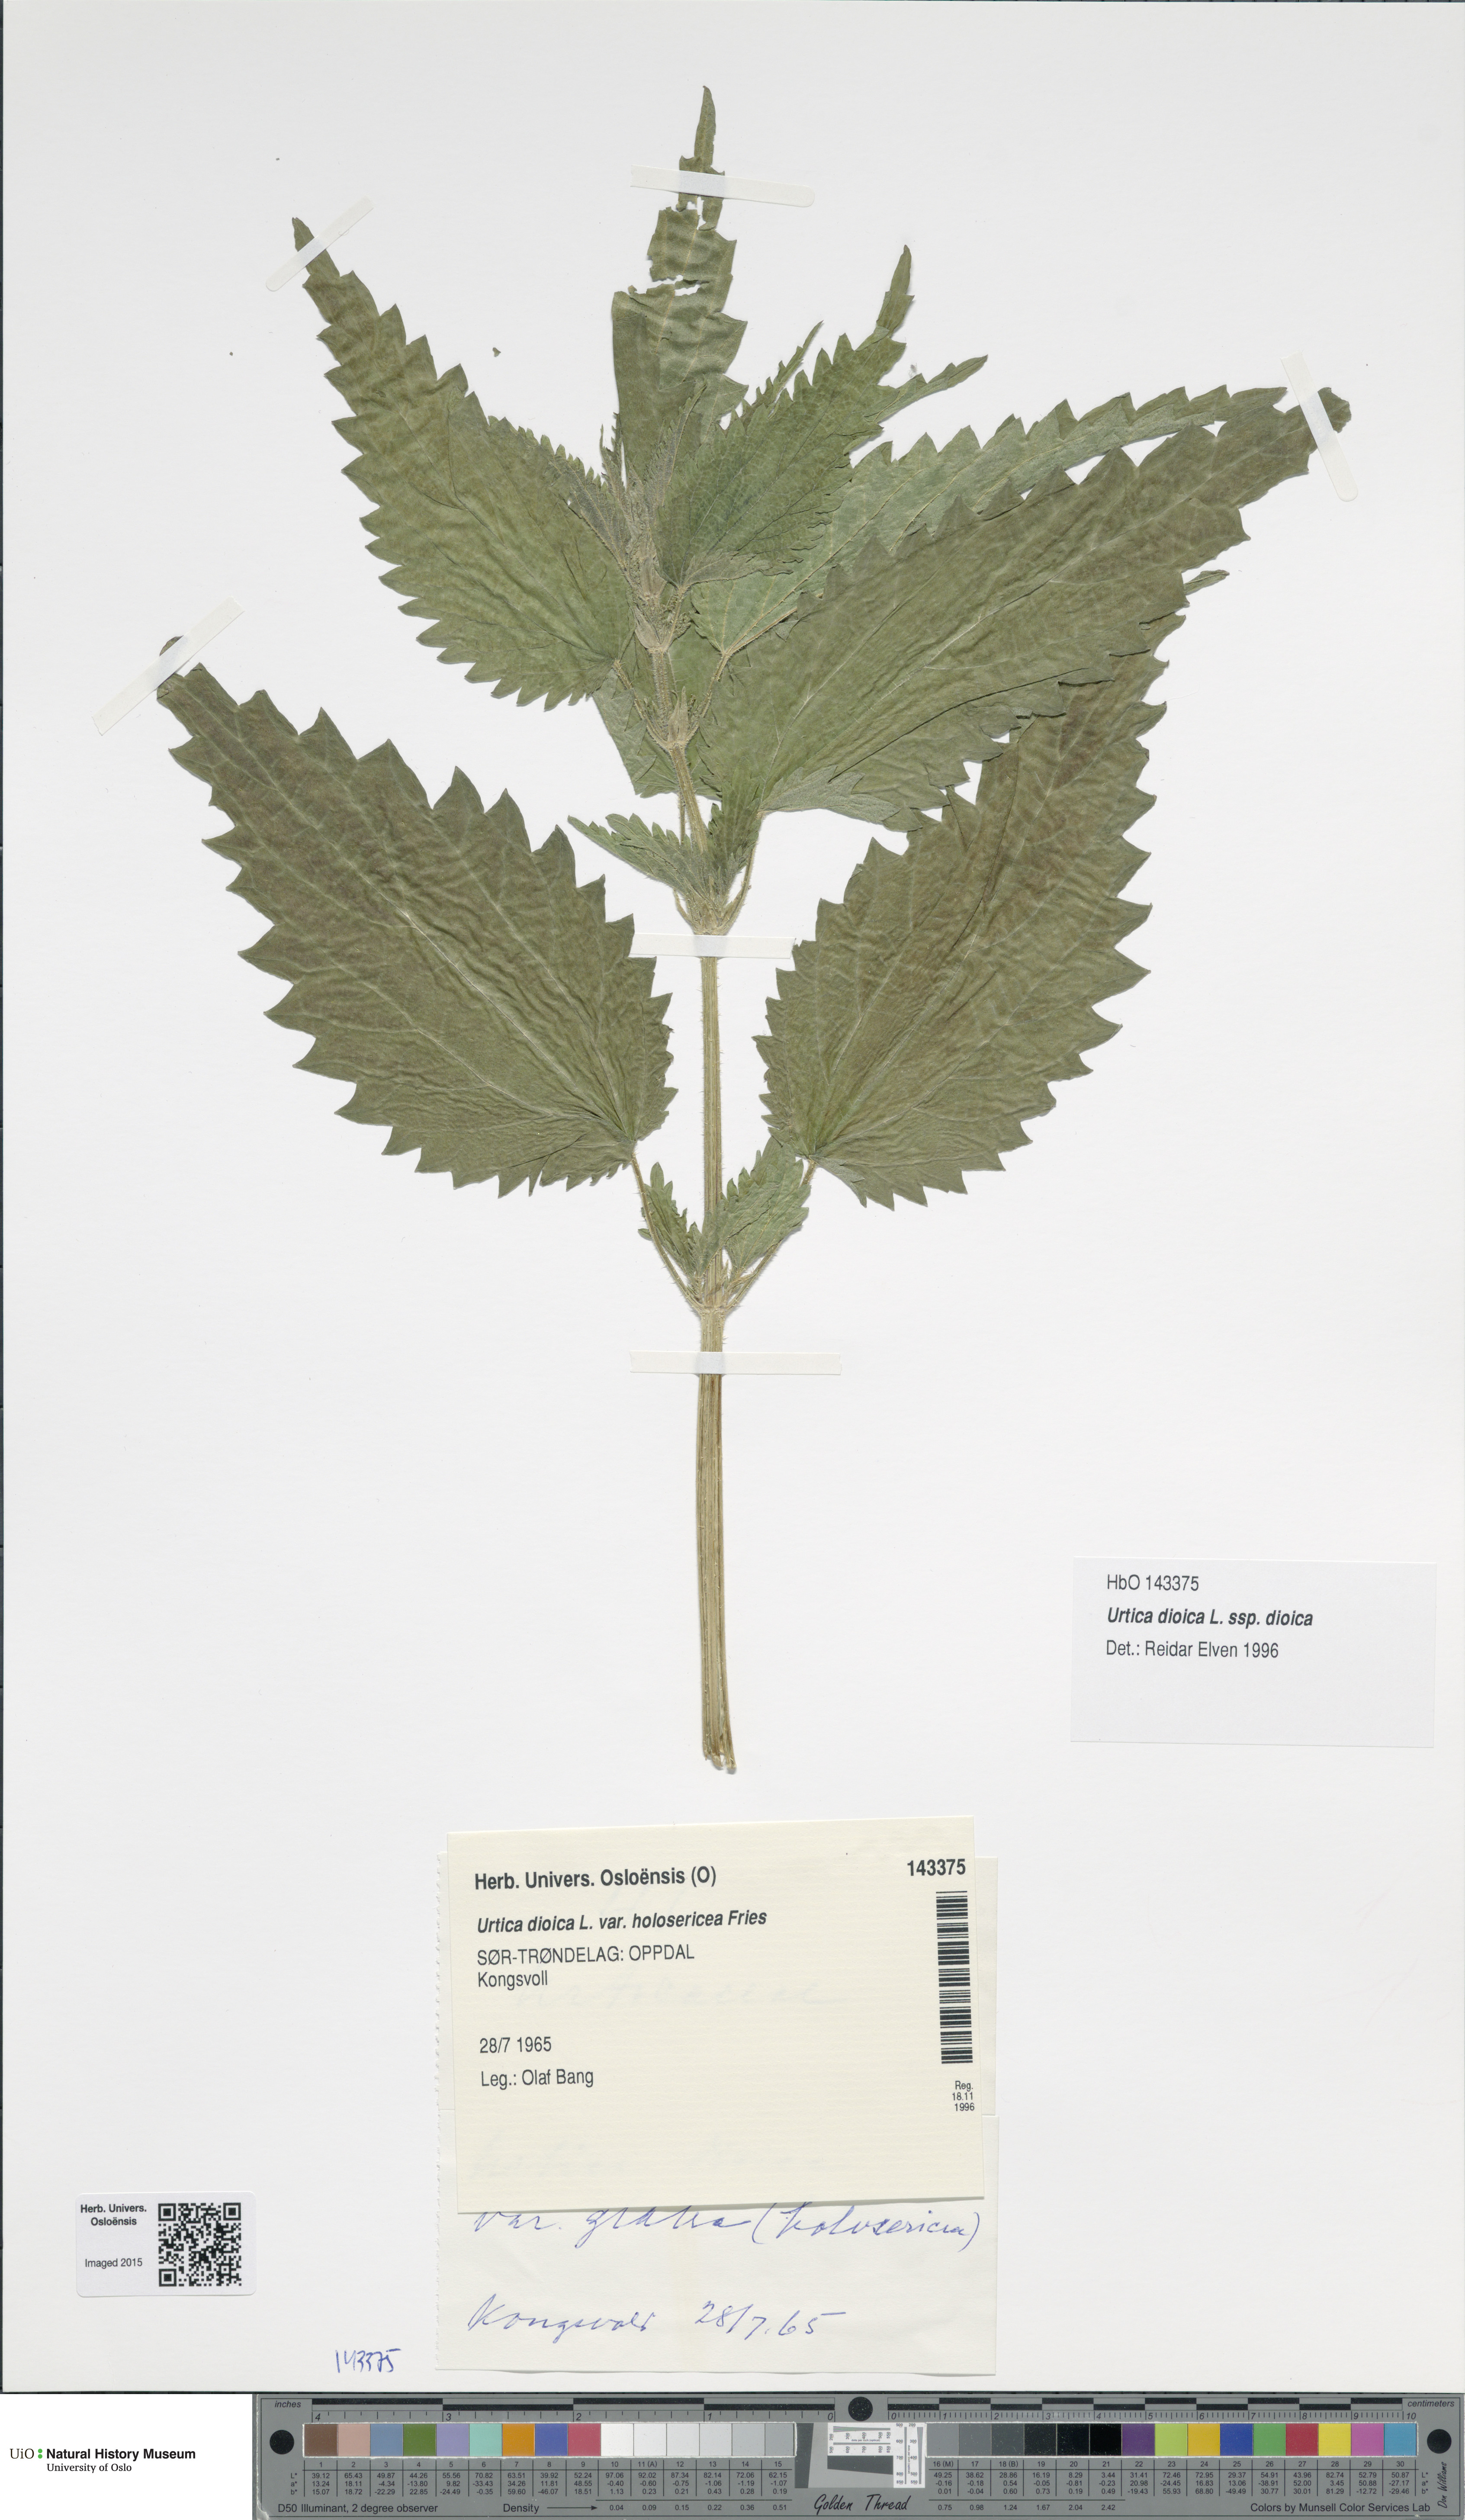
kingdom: Plantae
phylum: Tracheophyta
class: Magnoliopsida
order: Rosales
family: Urticaceae
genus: Urtica
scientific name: Urtica dioica
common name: Common nettle
